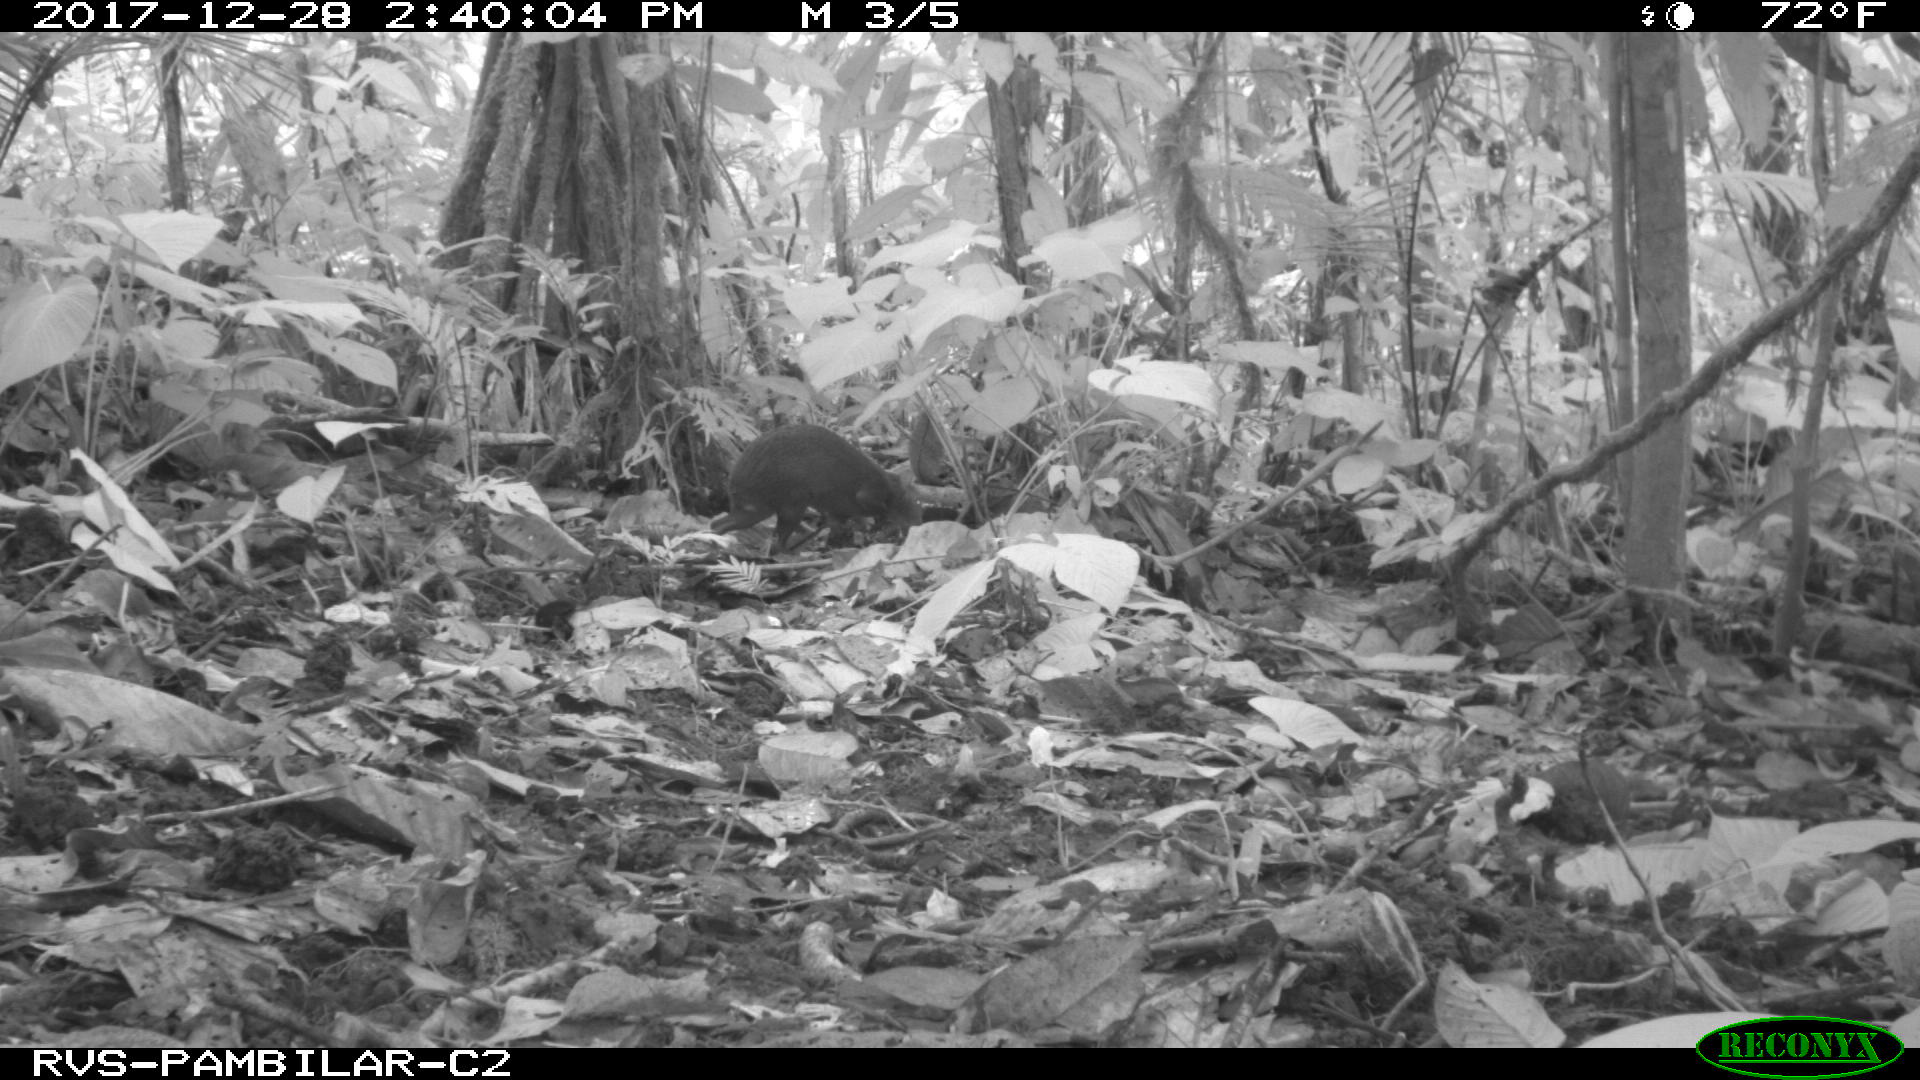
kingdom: Animalia
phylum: Chordata
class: Mammalia
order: Rodentia
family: Dasyproctidae
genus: Dasyprocta
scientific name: Dasyprocta punctata
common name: Central american agouti
